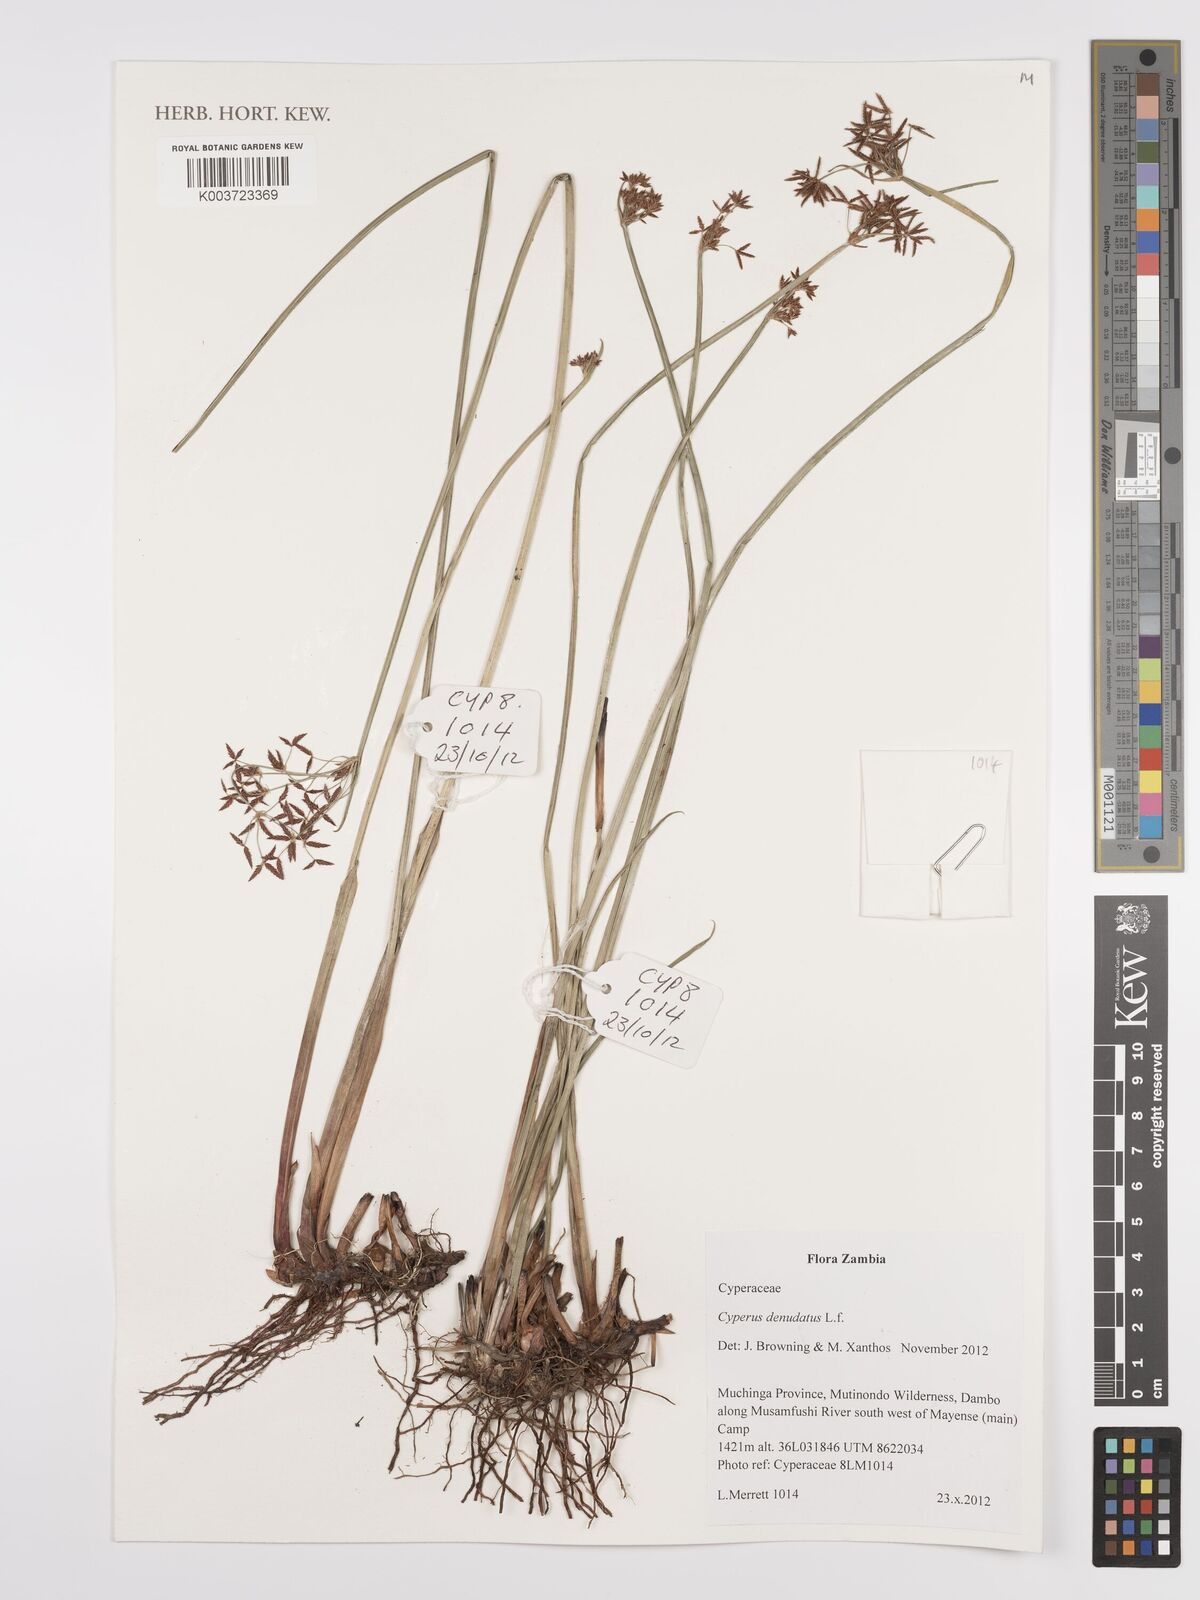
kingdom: Plantae
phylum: Tracheophyta
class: Liliopsida
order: Poales
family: Cyperaceae
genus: Cyperus
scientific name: Cyperus denudatus
